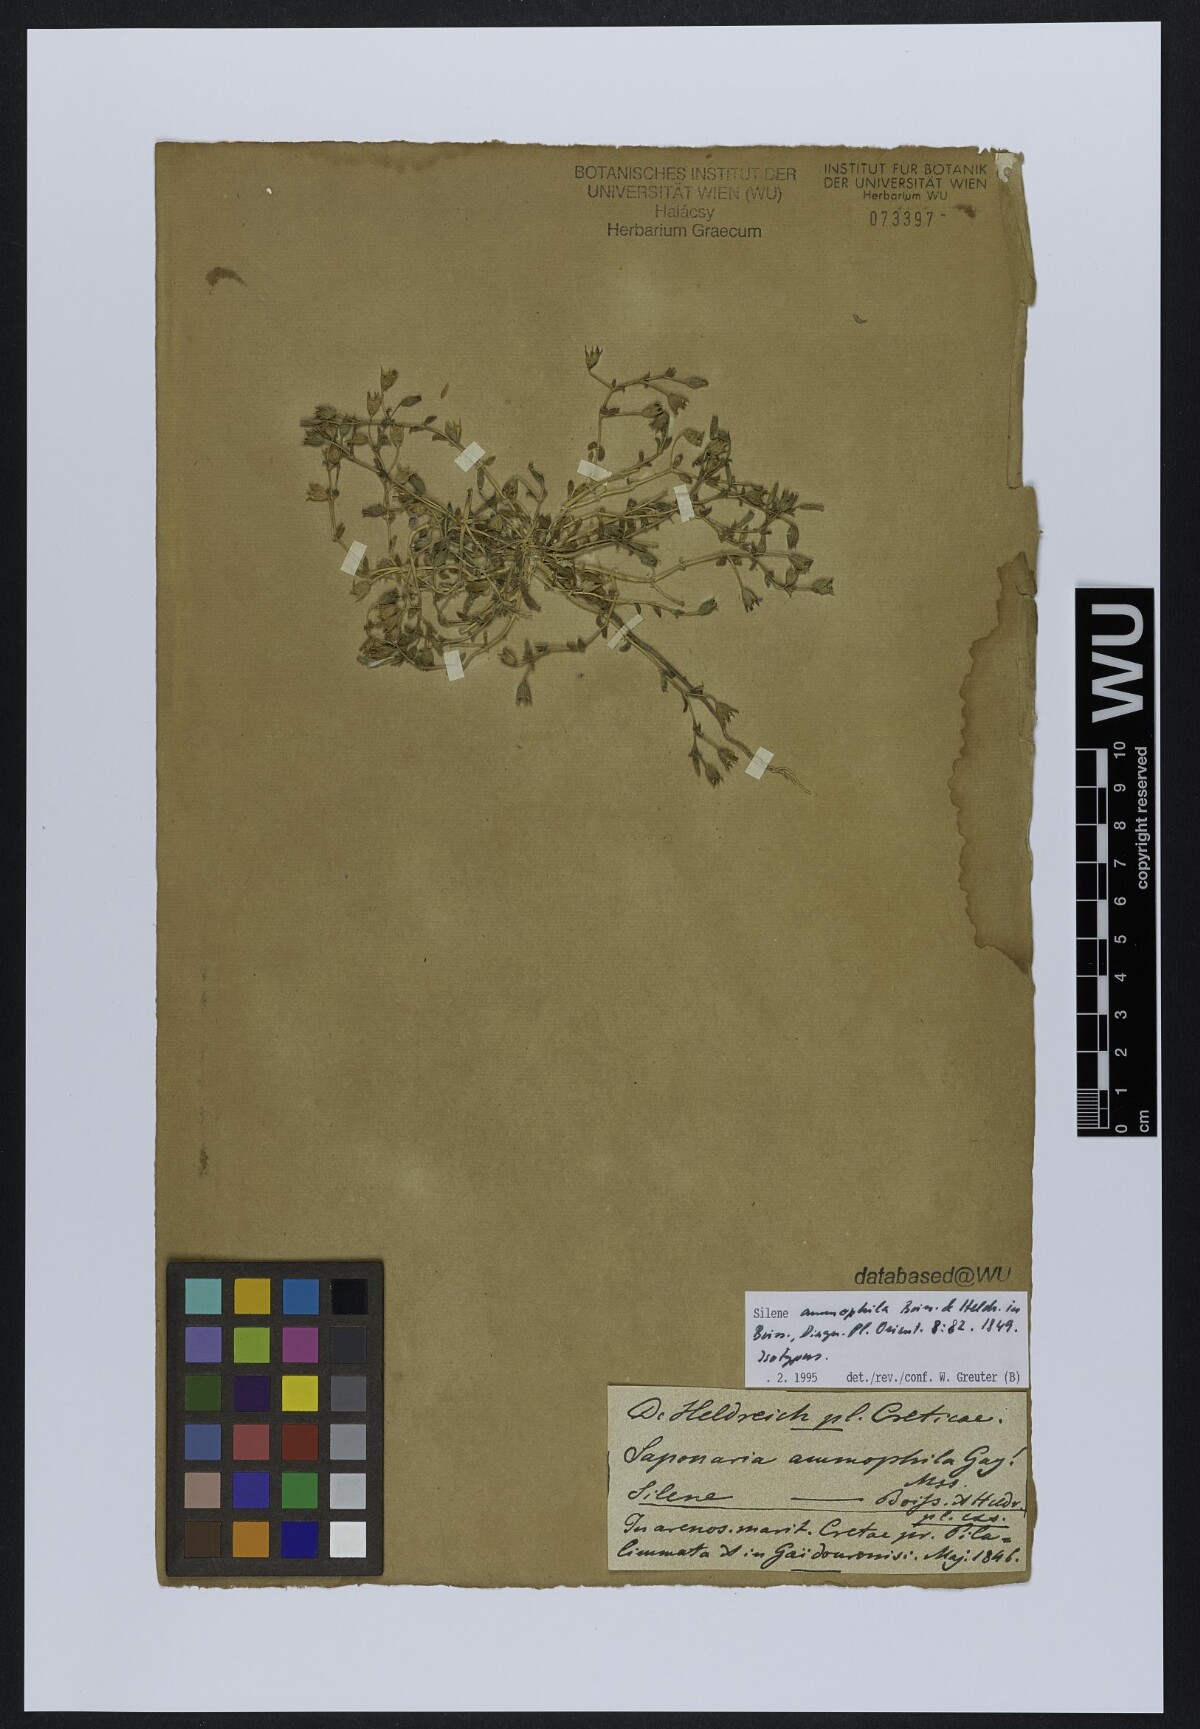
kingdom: Plantae
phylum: Tracheophyta
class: Magnoliopsida
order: Caryophyllales
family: Caryophyllaceae
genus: Silene
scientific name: Silene ammophila
